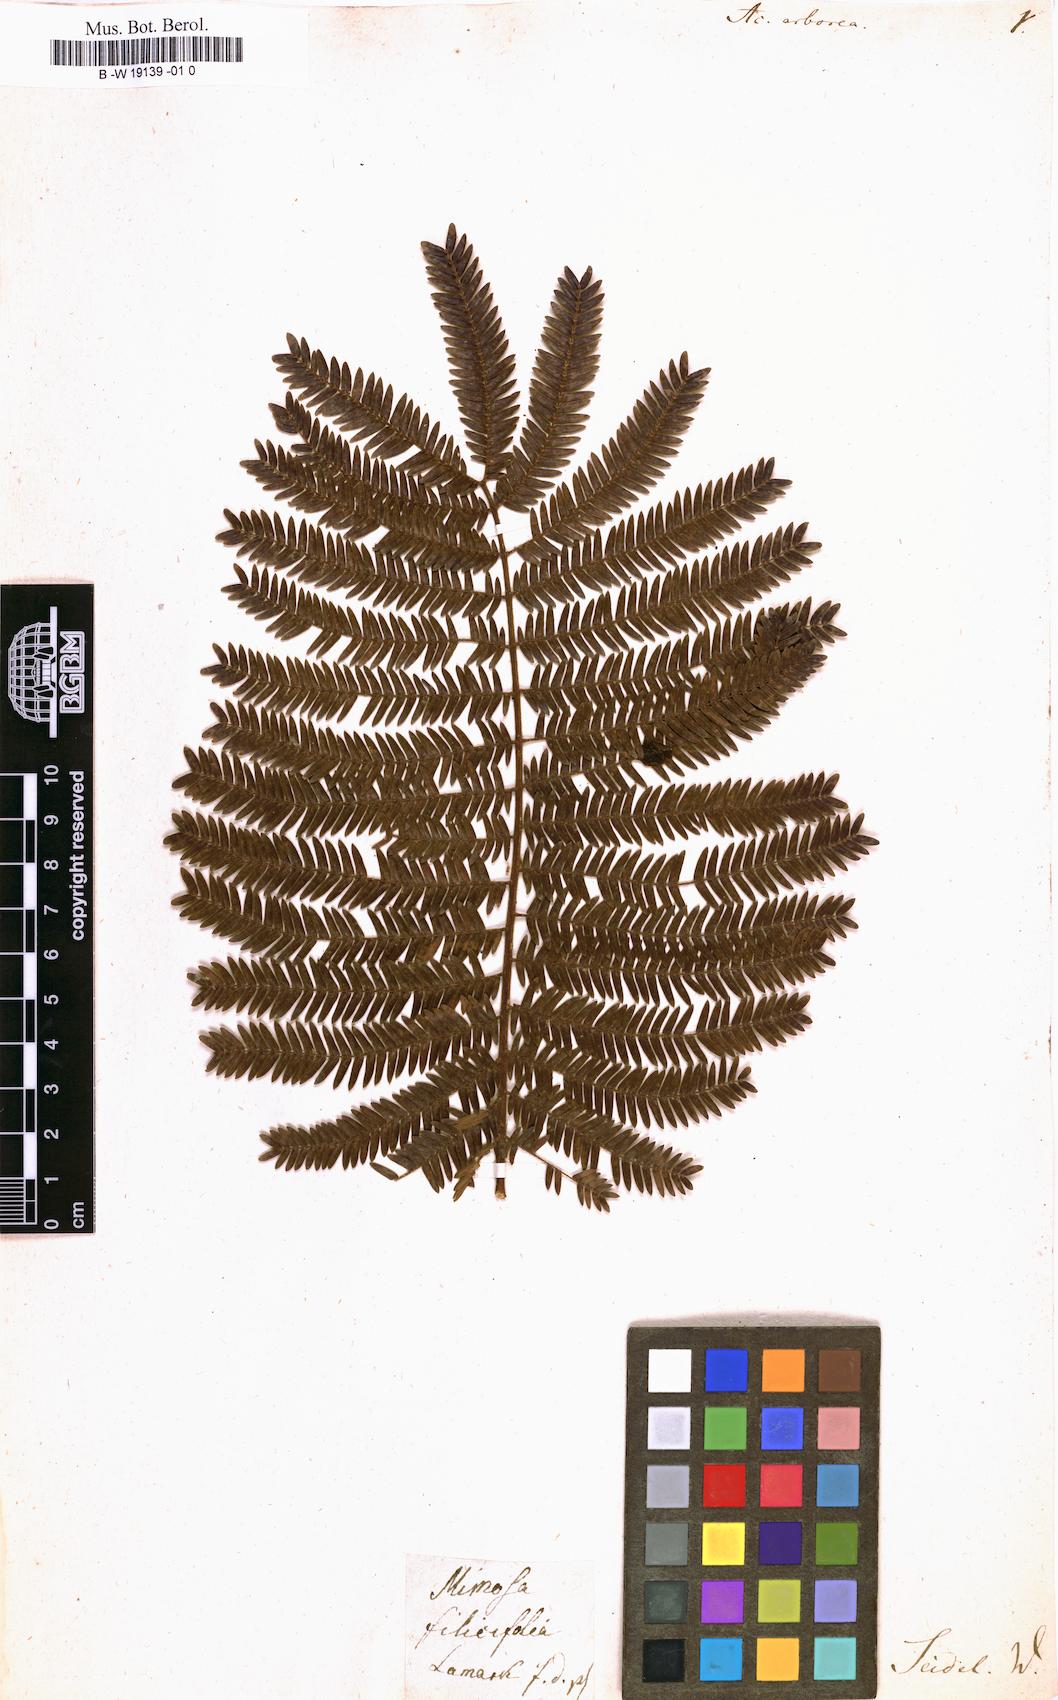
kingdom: Plantae
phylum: Tracheophyta
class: Magnoliopsida
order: Fabales
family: Fabaceae
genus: Cojoba
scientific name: Cojoba arborea
